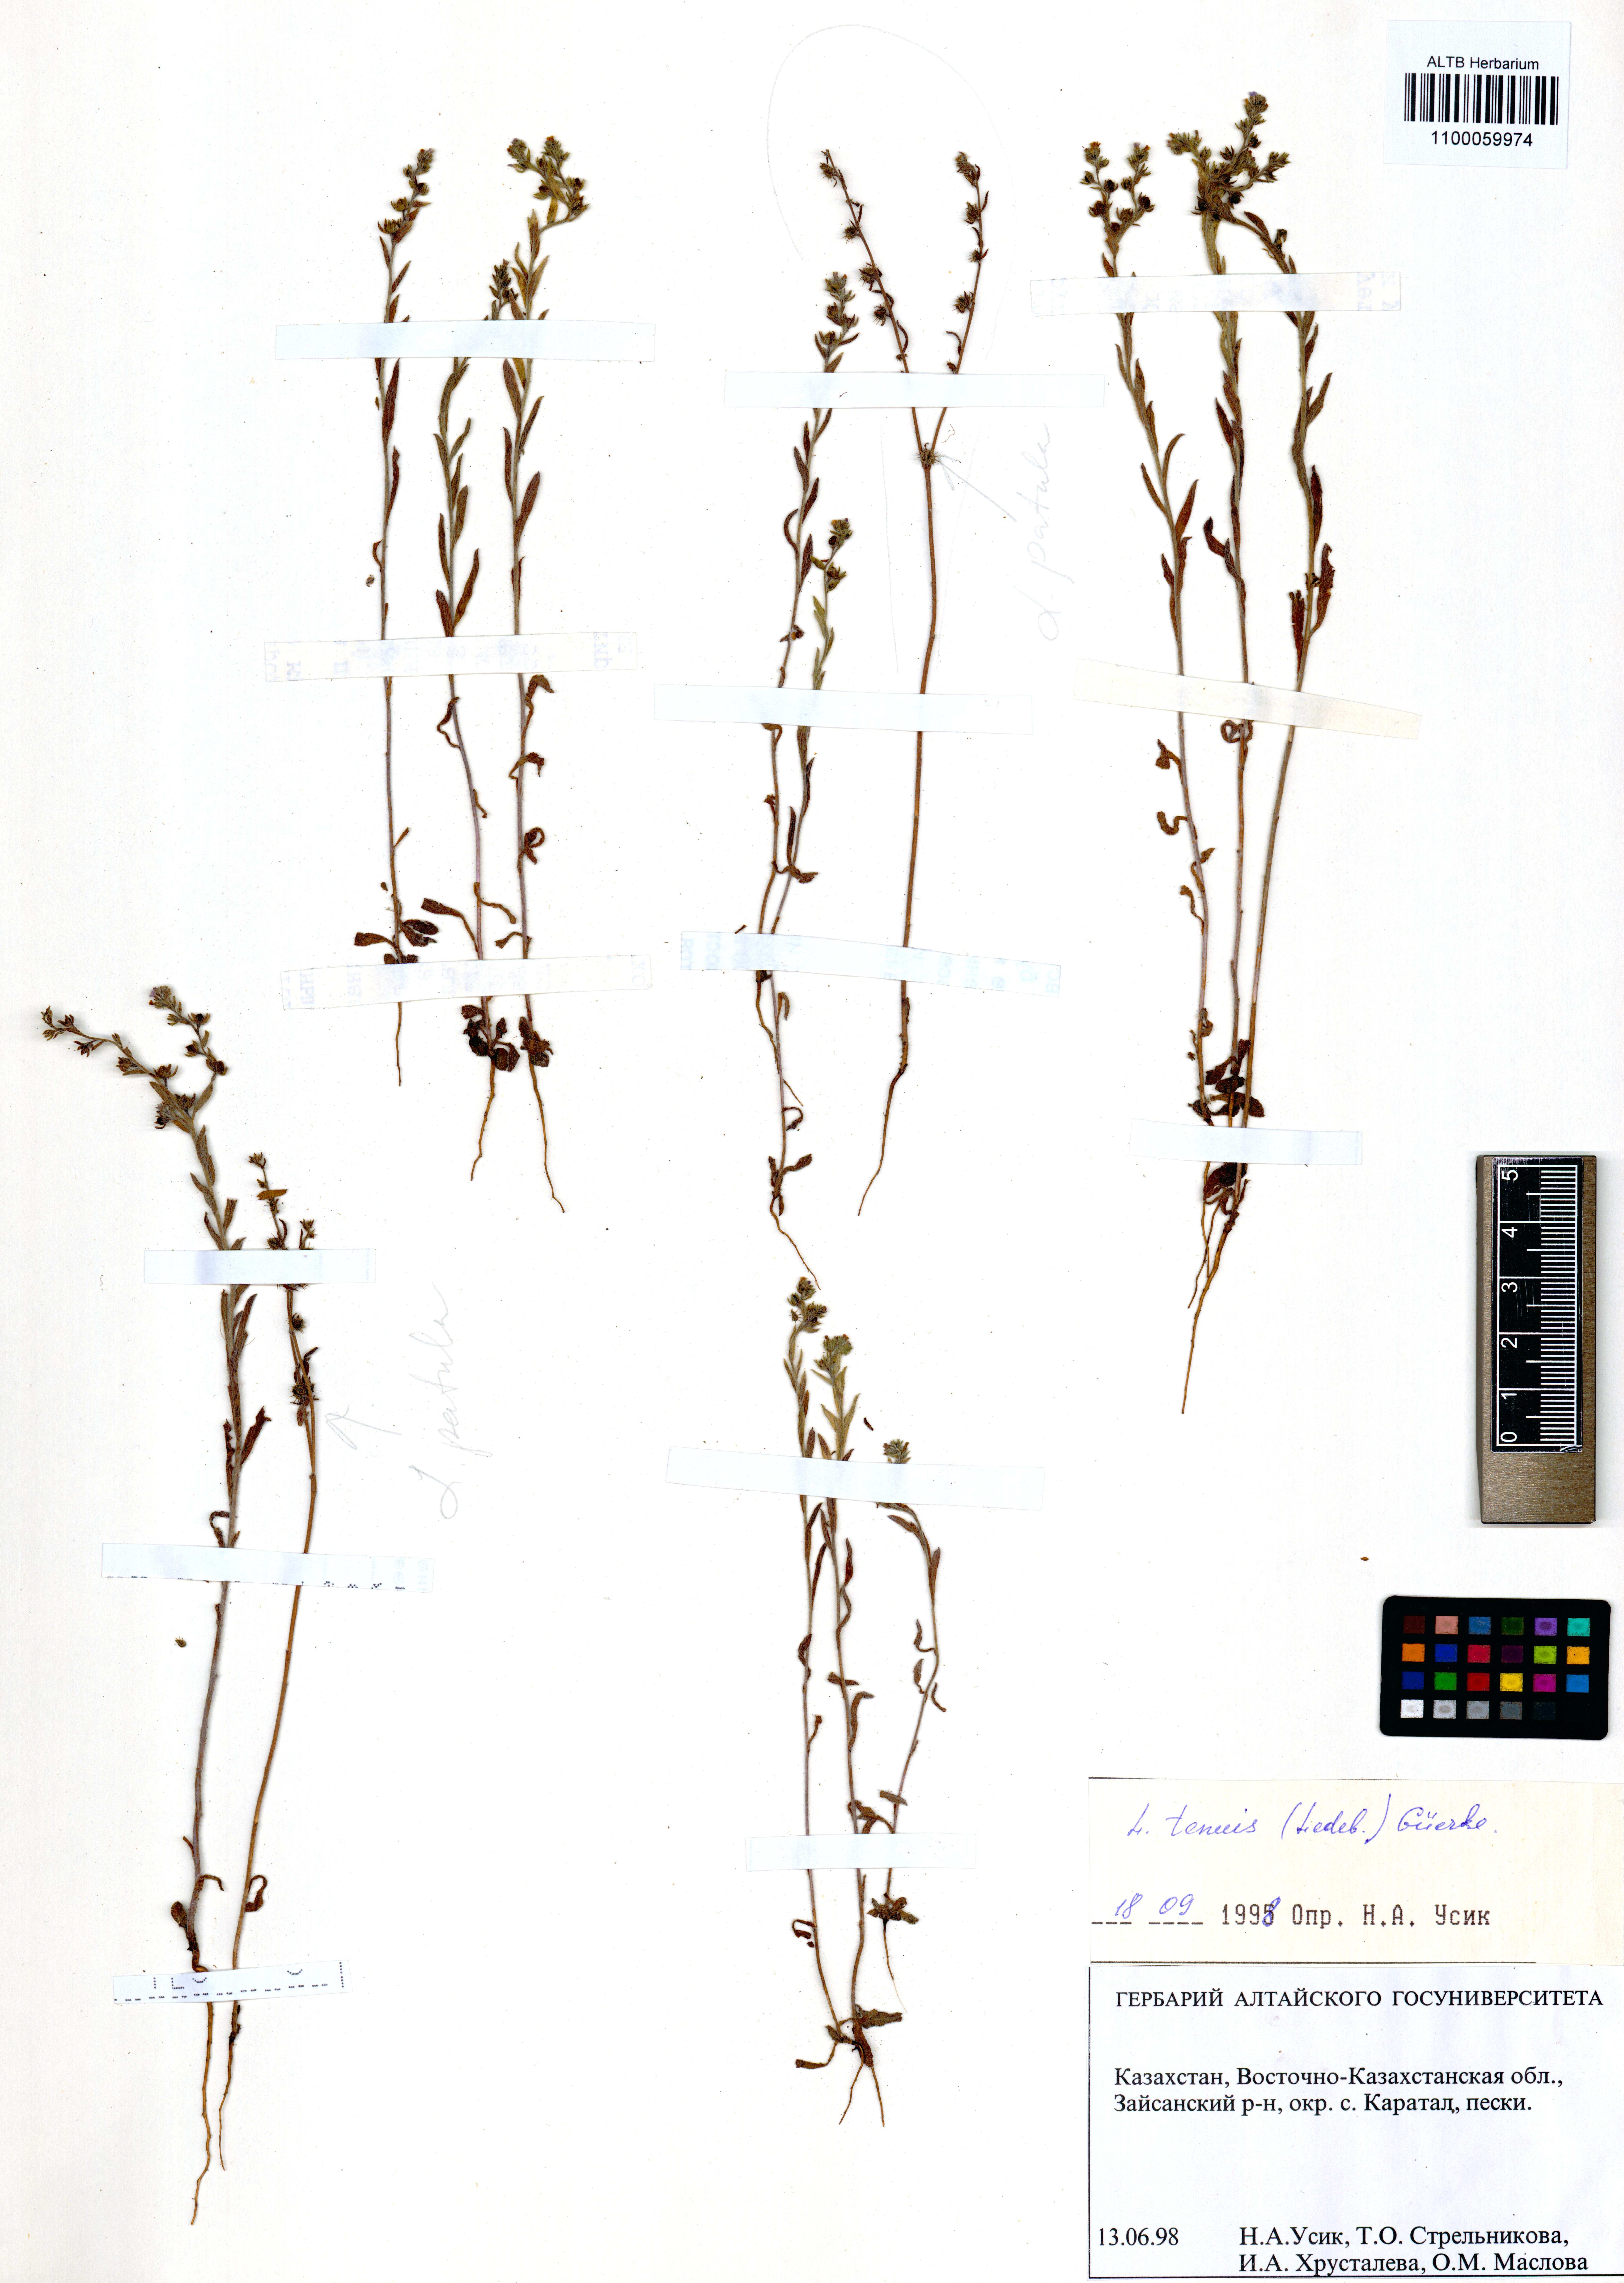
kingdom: Plantae
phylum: Tracheophyta
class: Magnoliopsida
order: Boraginales
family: Boraginaceae
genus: Lappula
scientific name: Lappula tenuis
